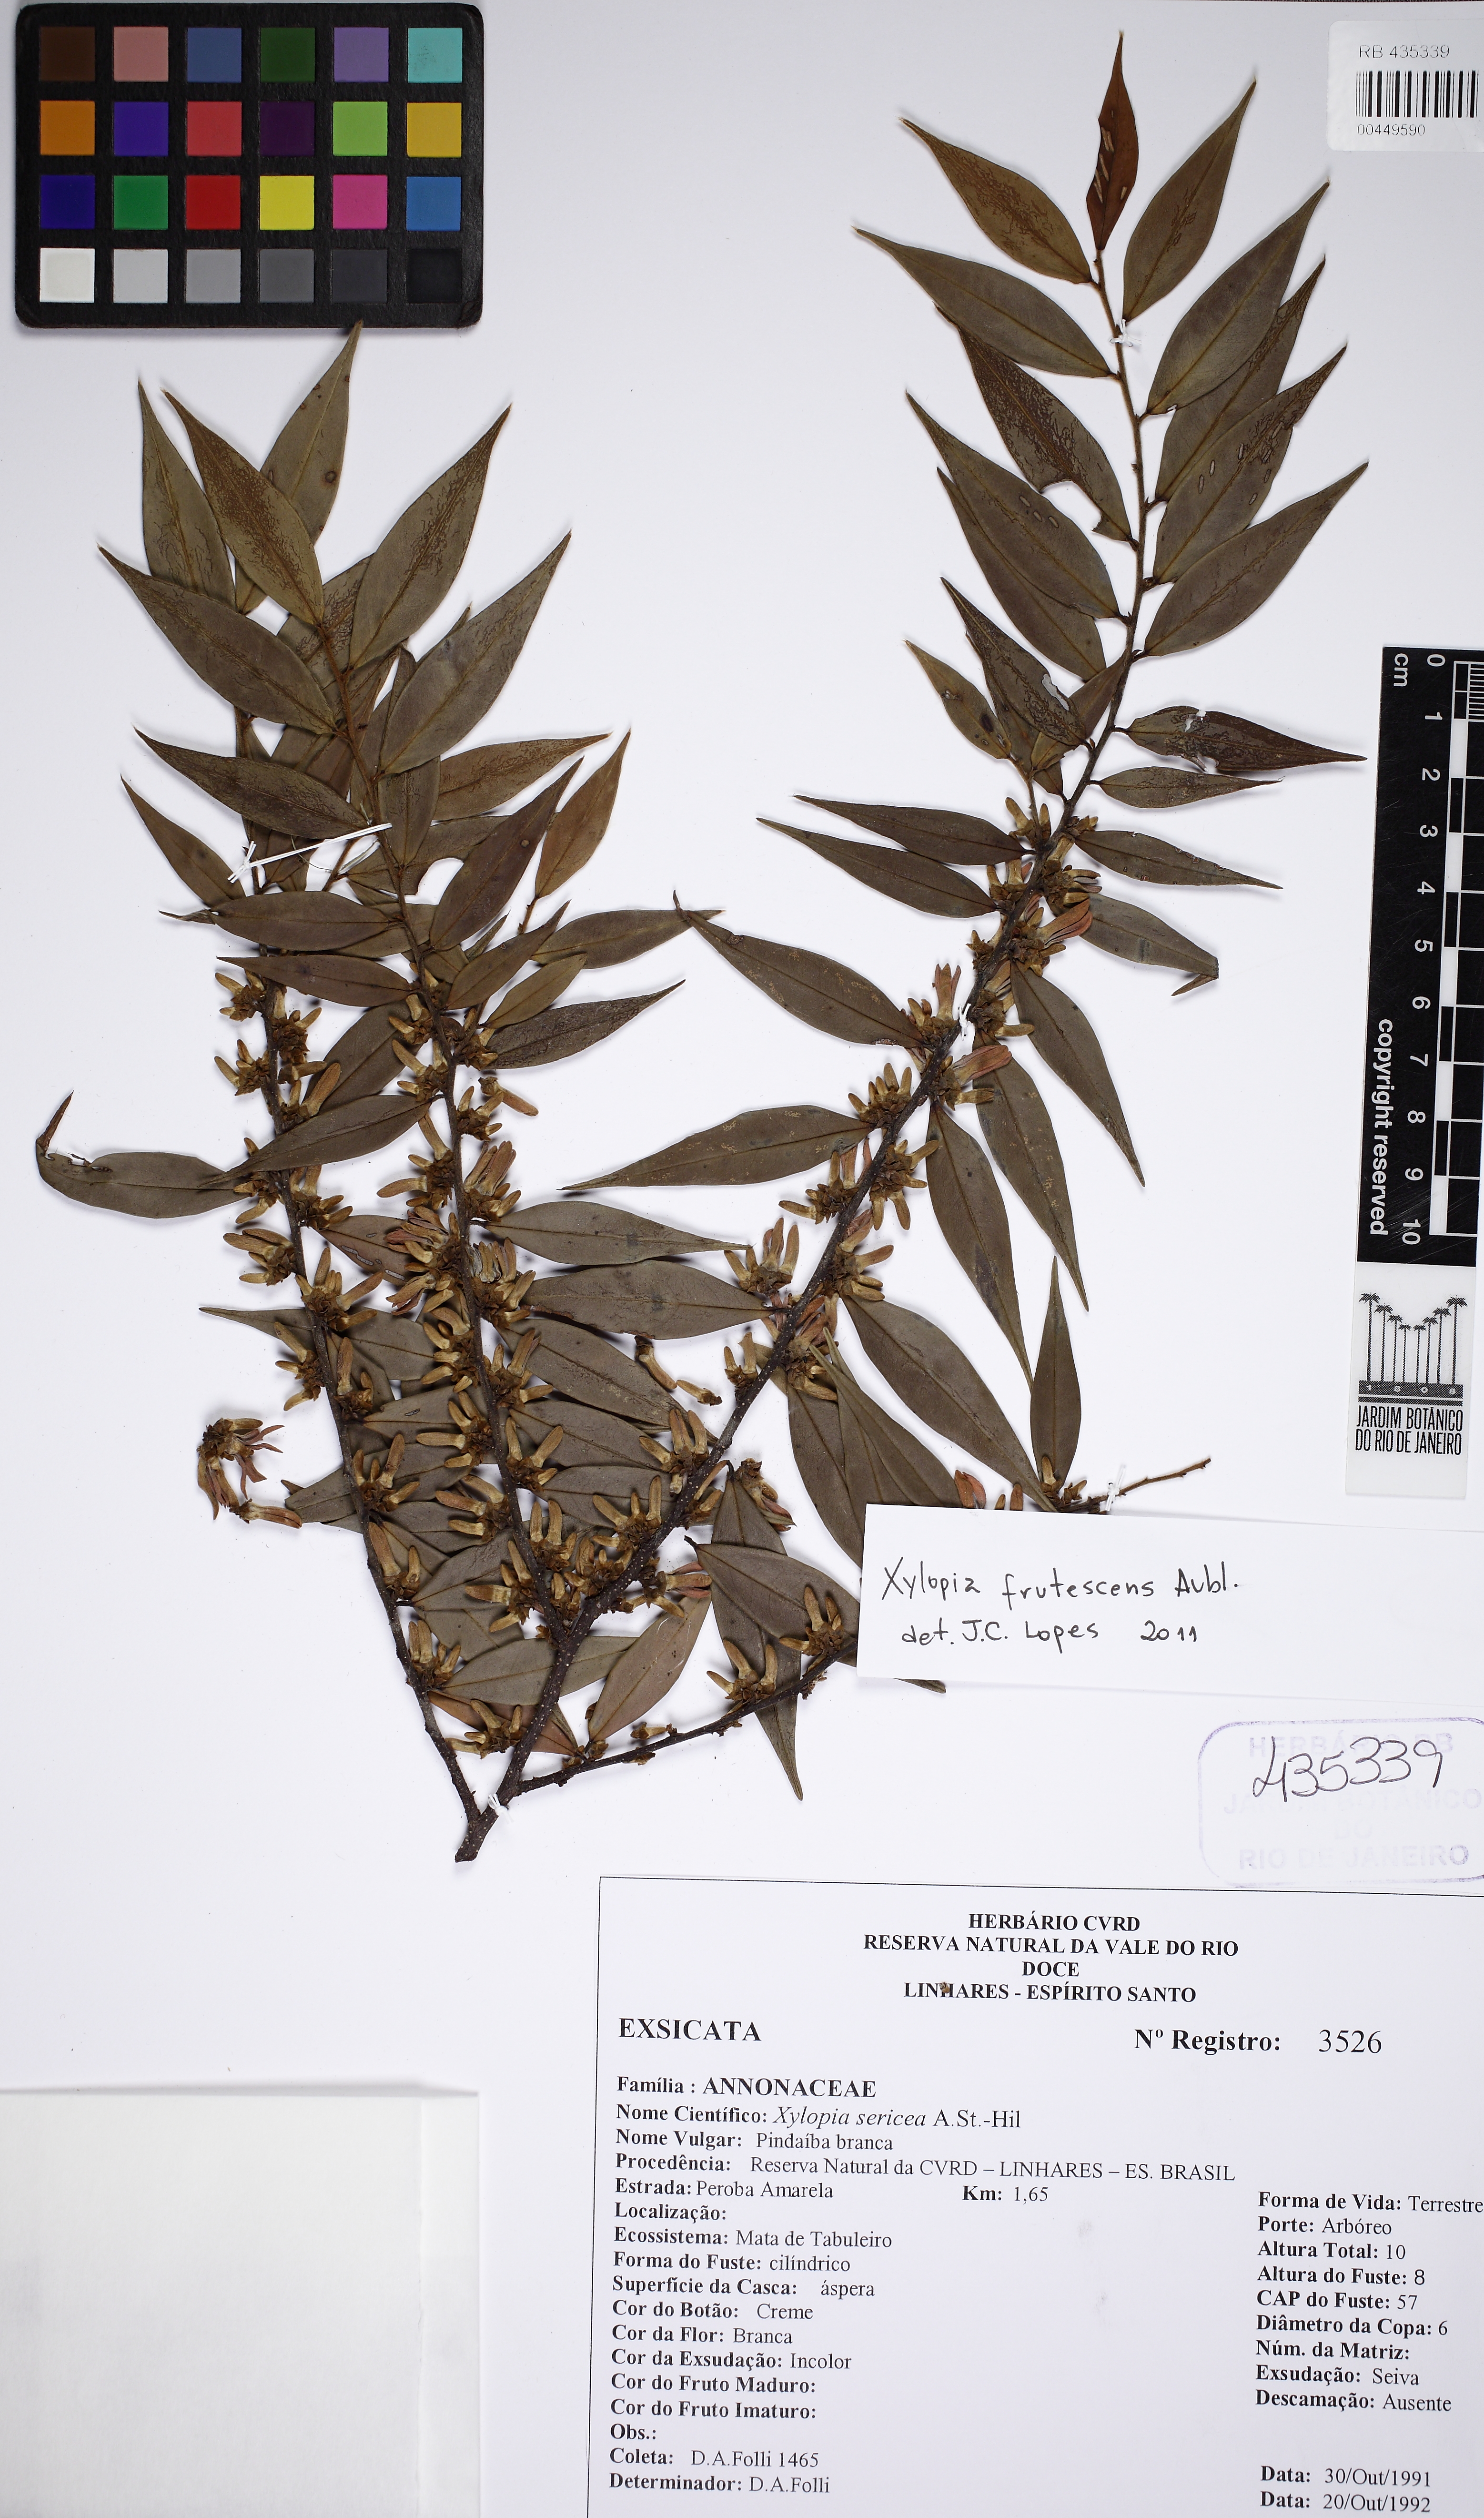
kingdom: Plantae
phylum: Tracheophyta
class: Magnoliopsida
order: Magnoliales
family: Annonaceae
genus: Xylopia
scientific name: Xylopia frutescens
